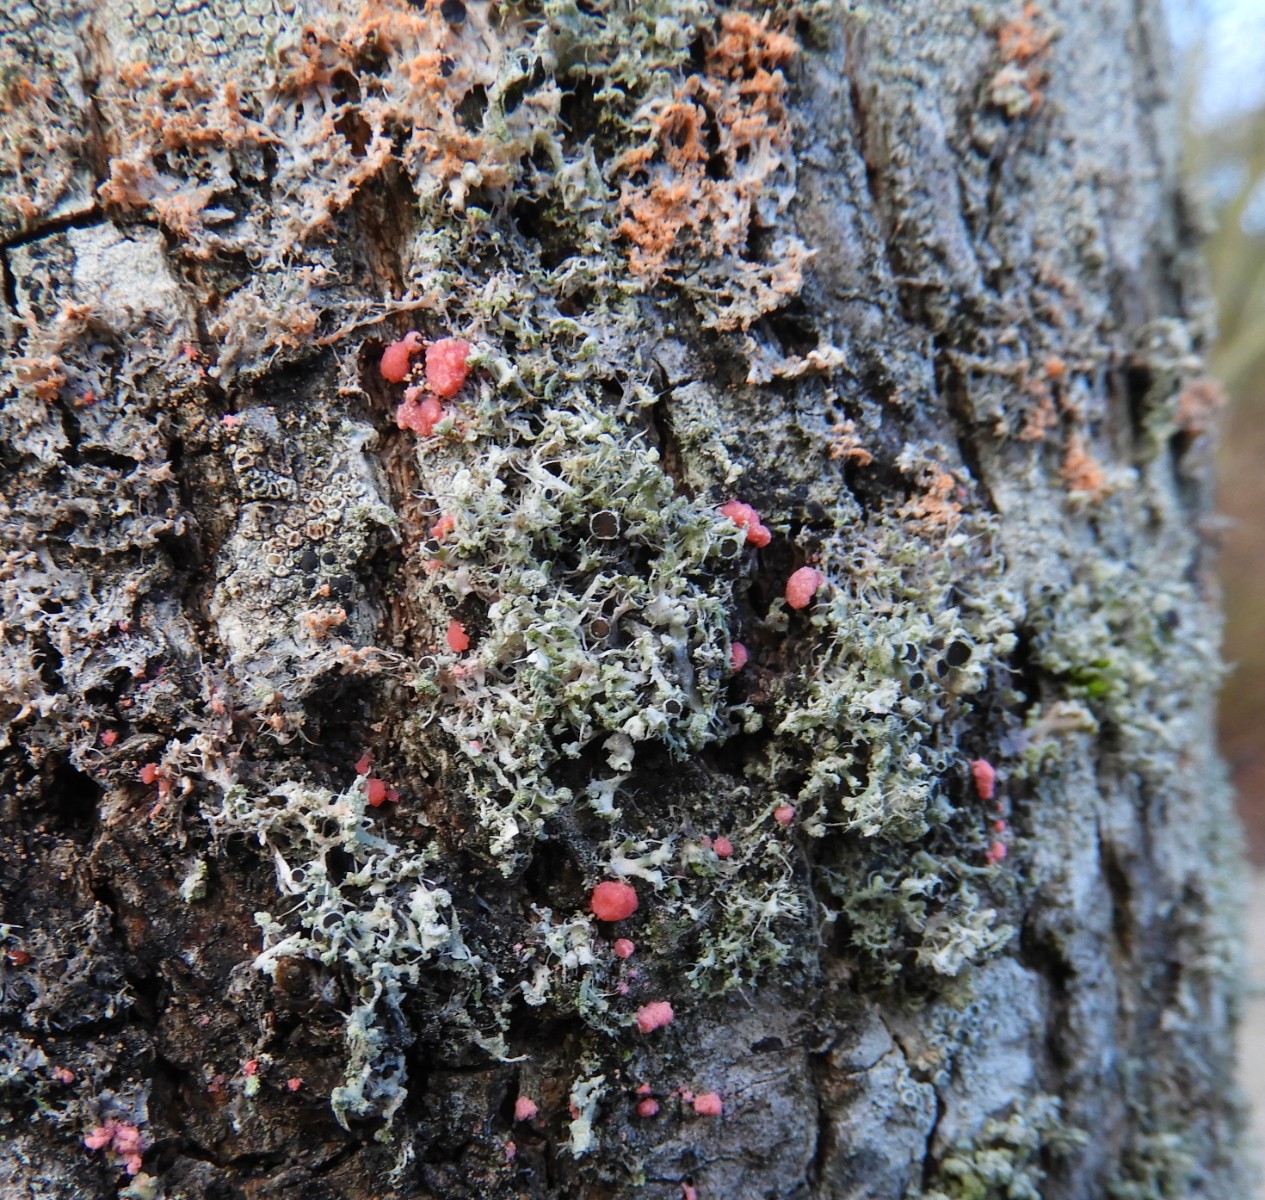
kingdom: Fungi
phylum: Basidiomycota
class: Agaricomycetes
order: Corticiales
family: Corticiaceae
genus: Erythricium
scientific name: Erythricium aurantiacum
